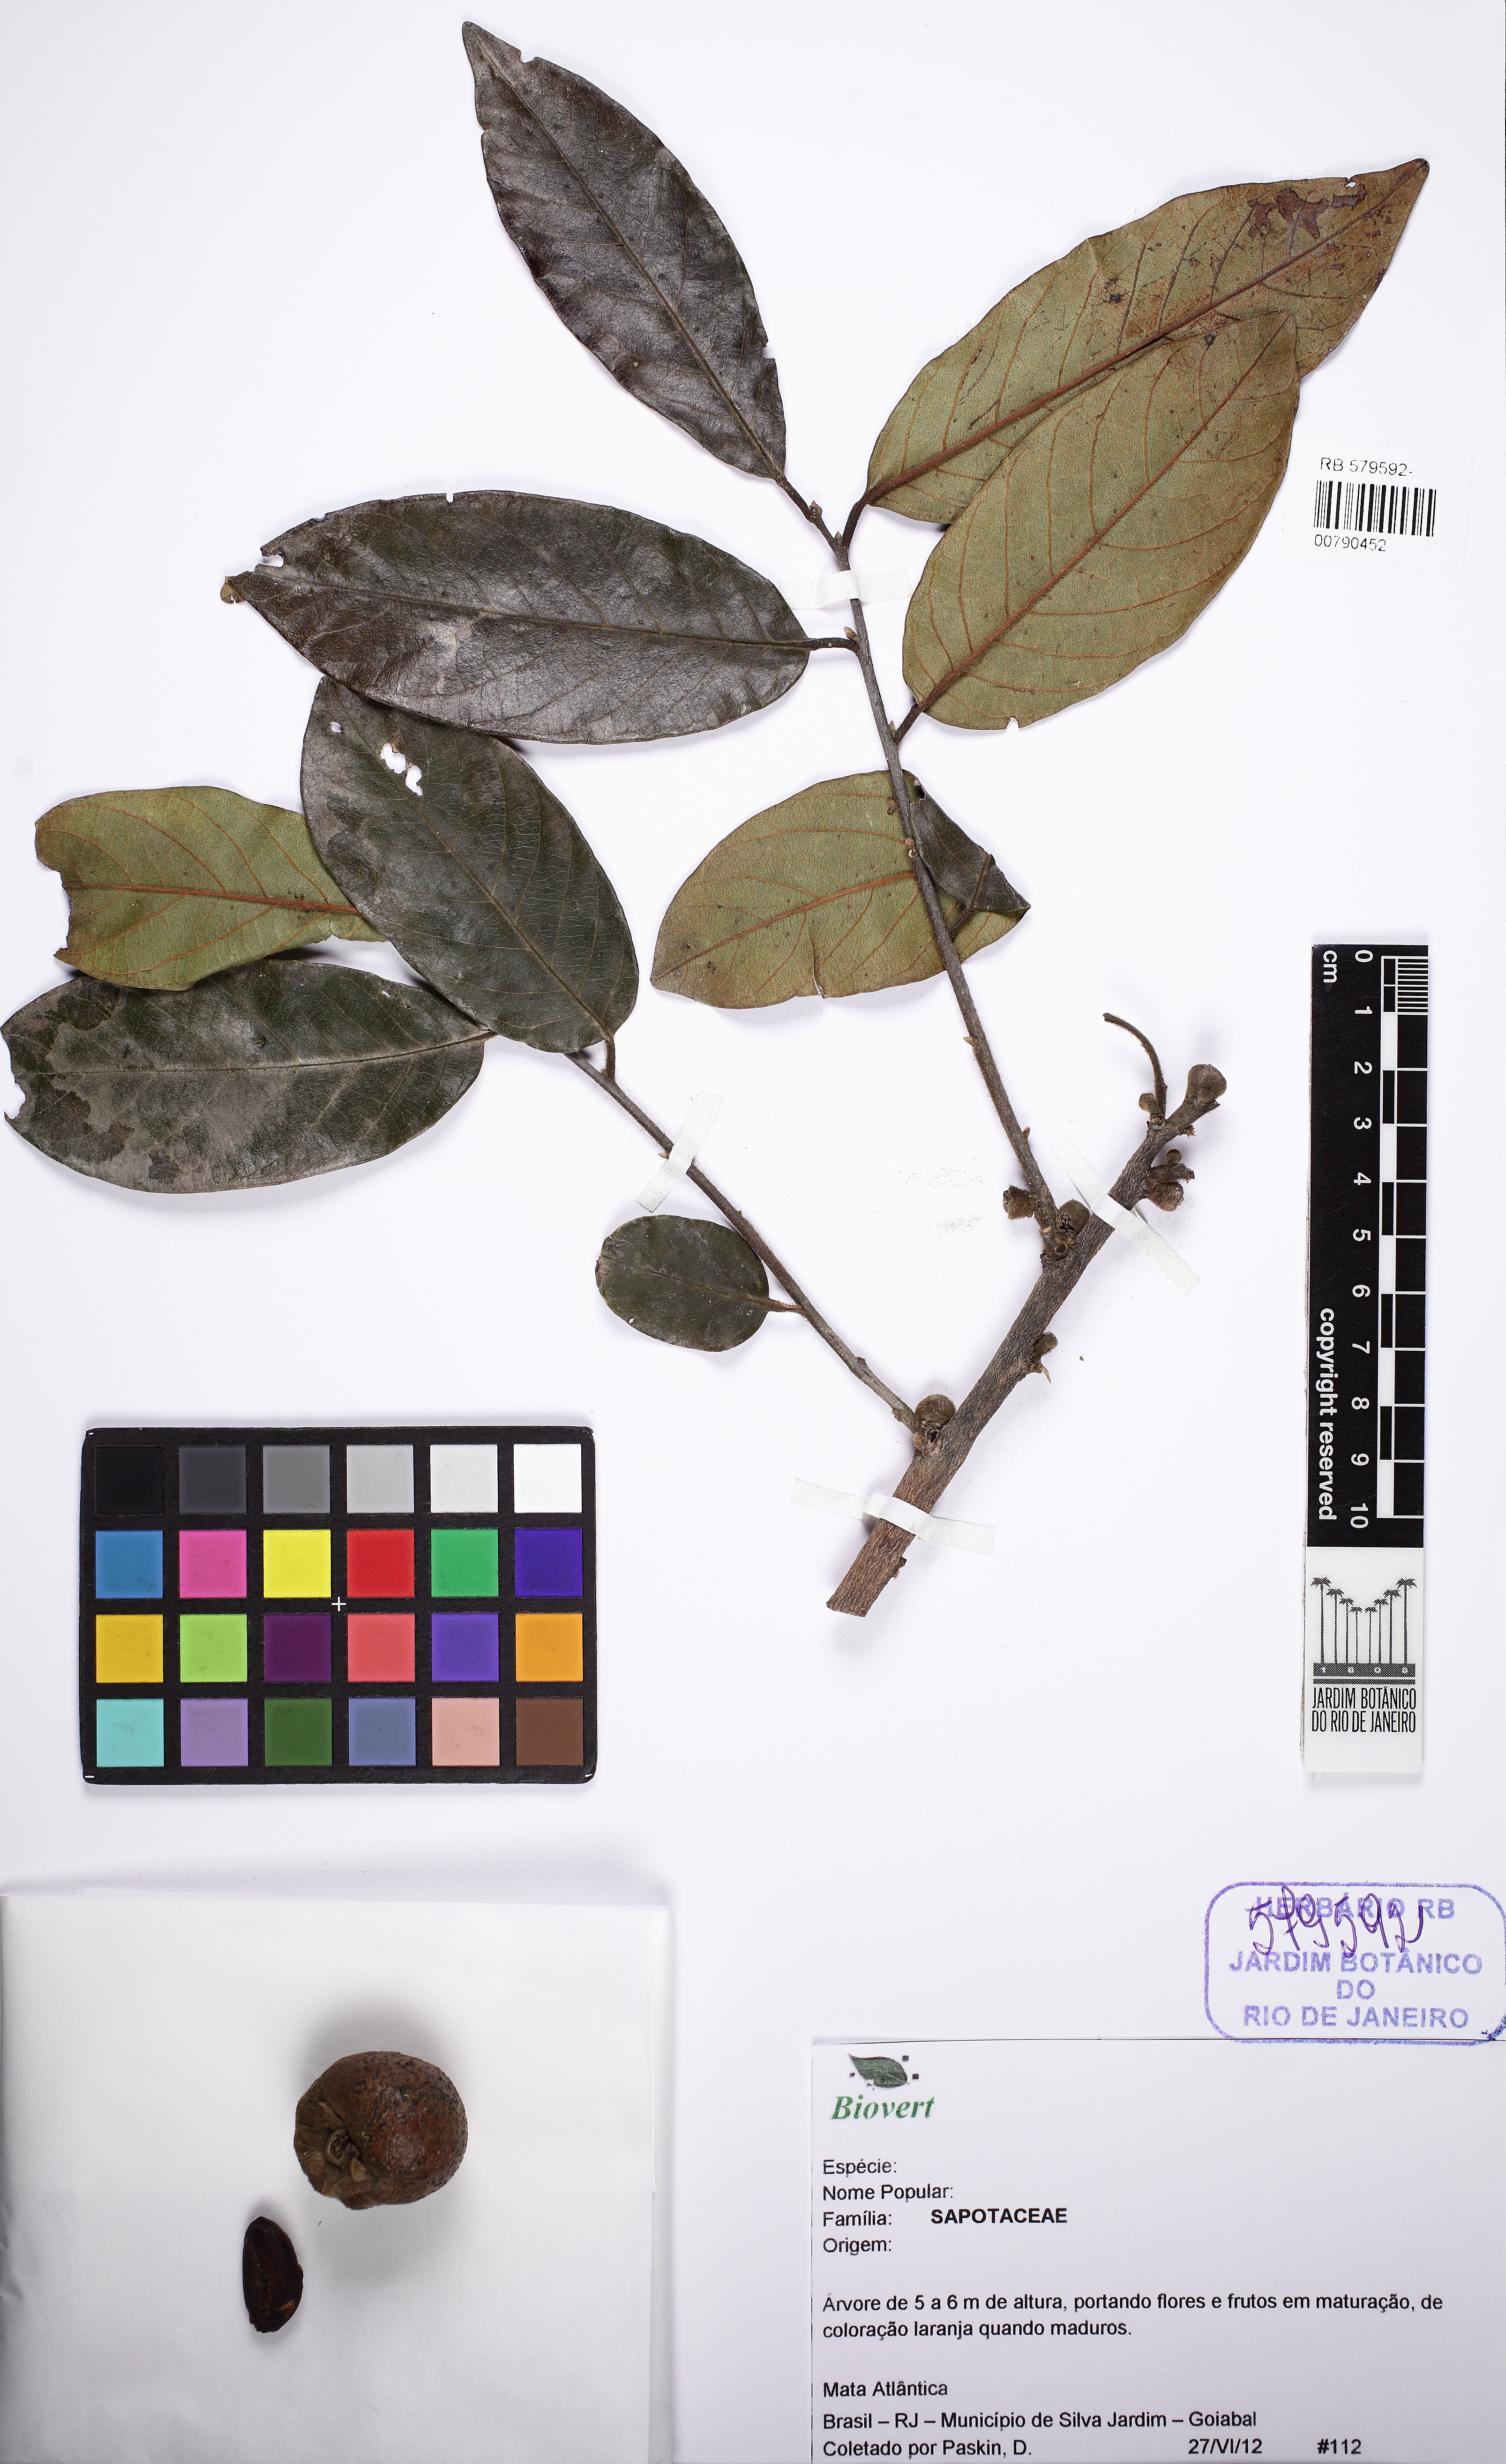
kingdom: Plantae
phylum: Tracheophyta
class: Magnoliopsida
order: Ericales
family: Ebenaceae
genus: Diospyros
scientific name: Diospyros
